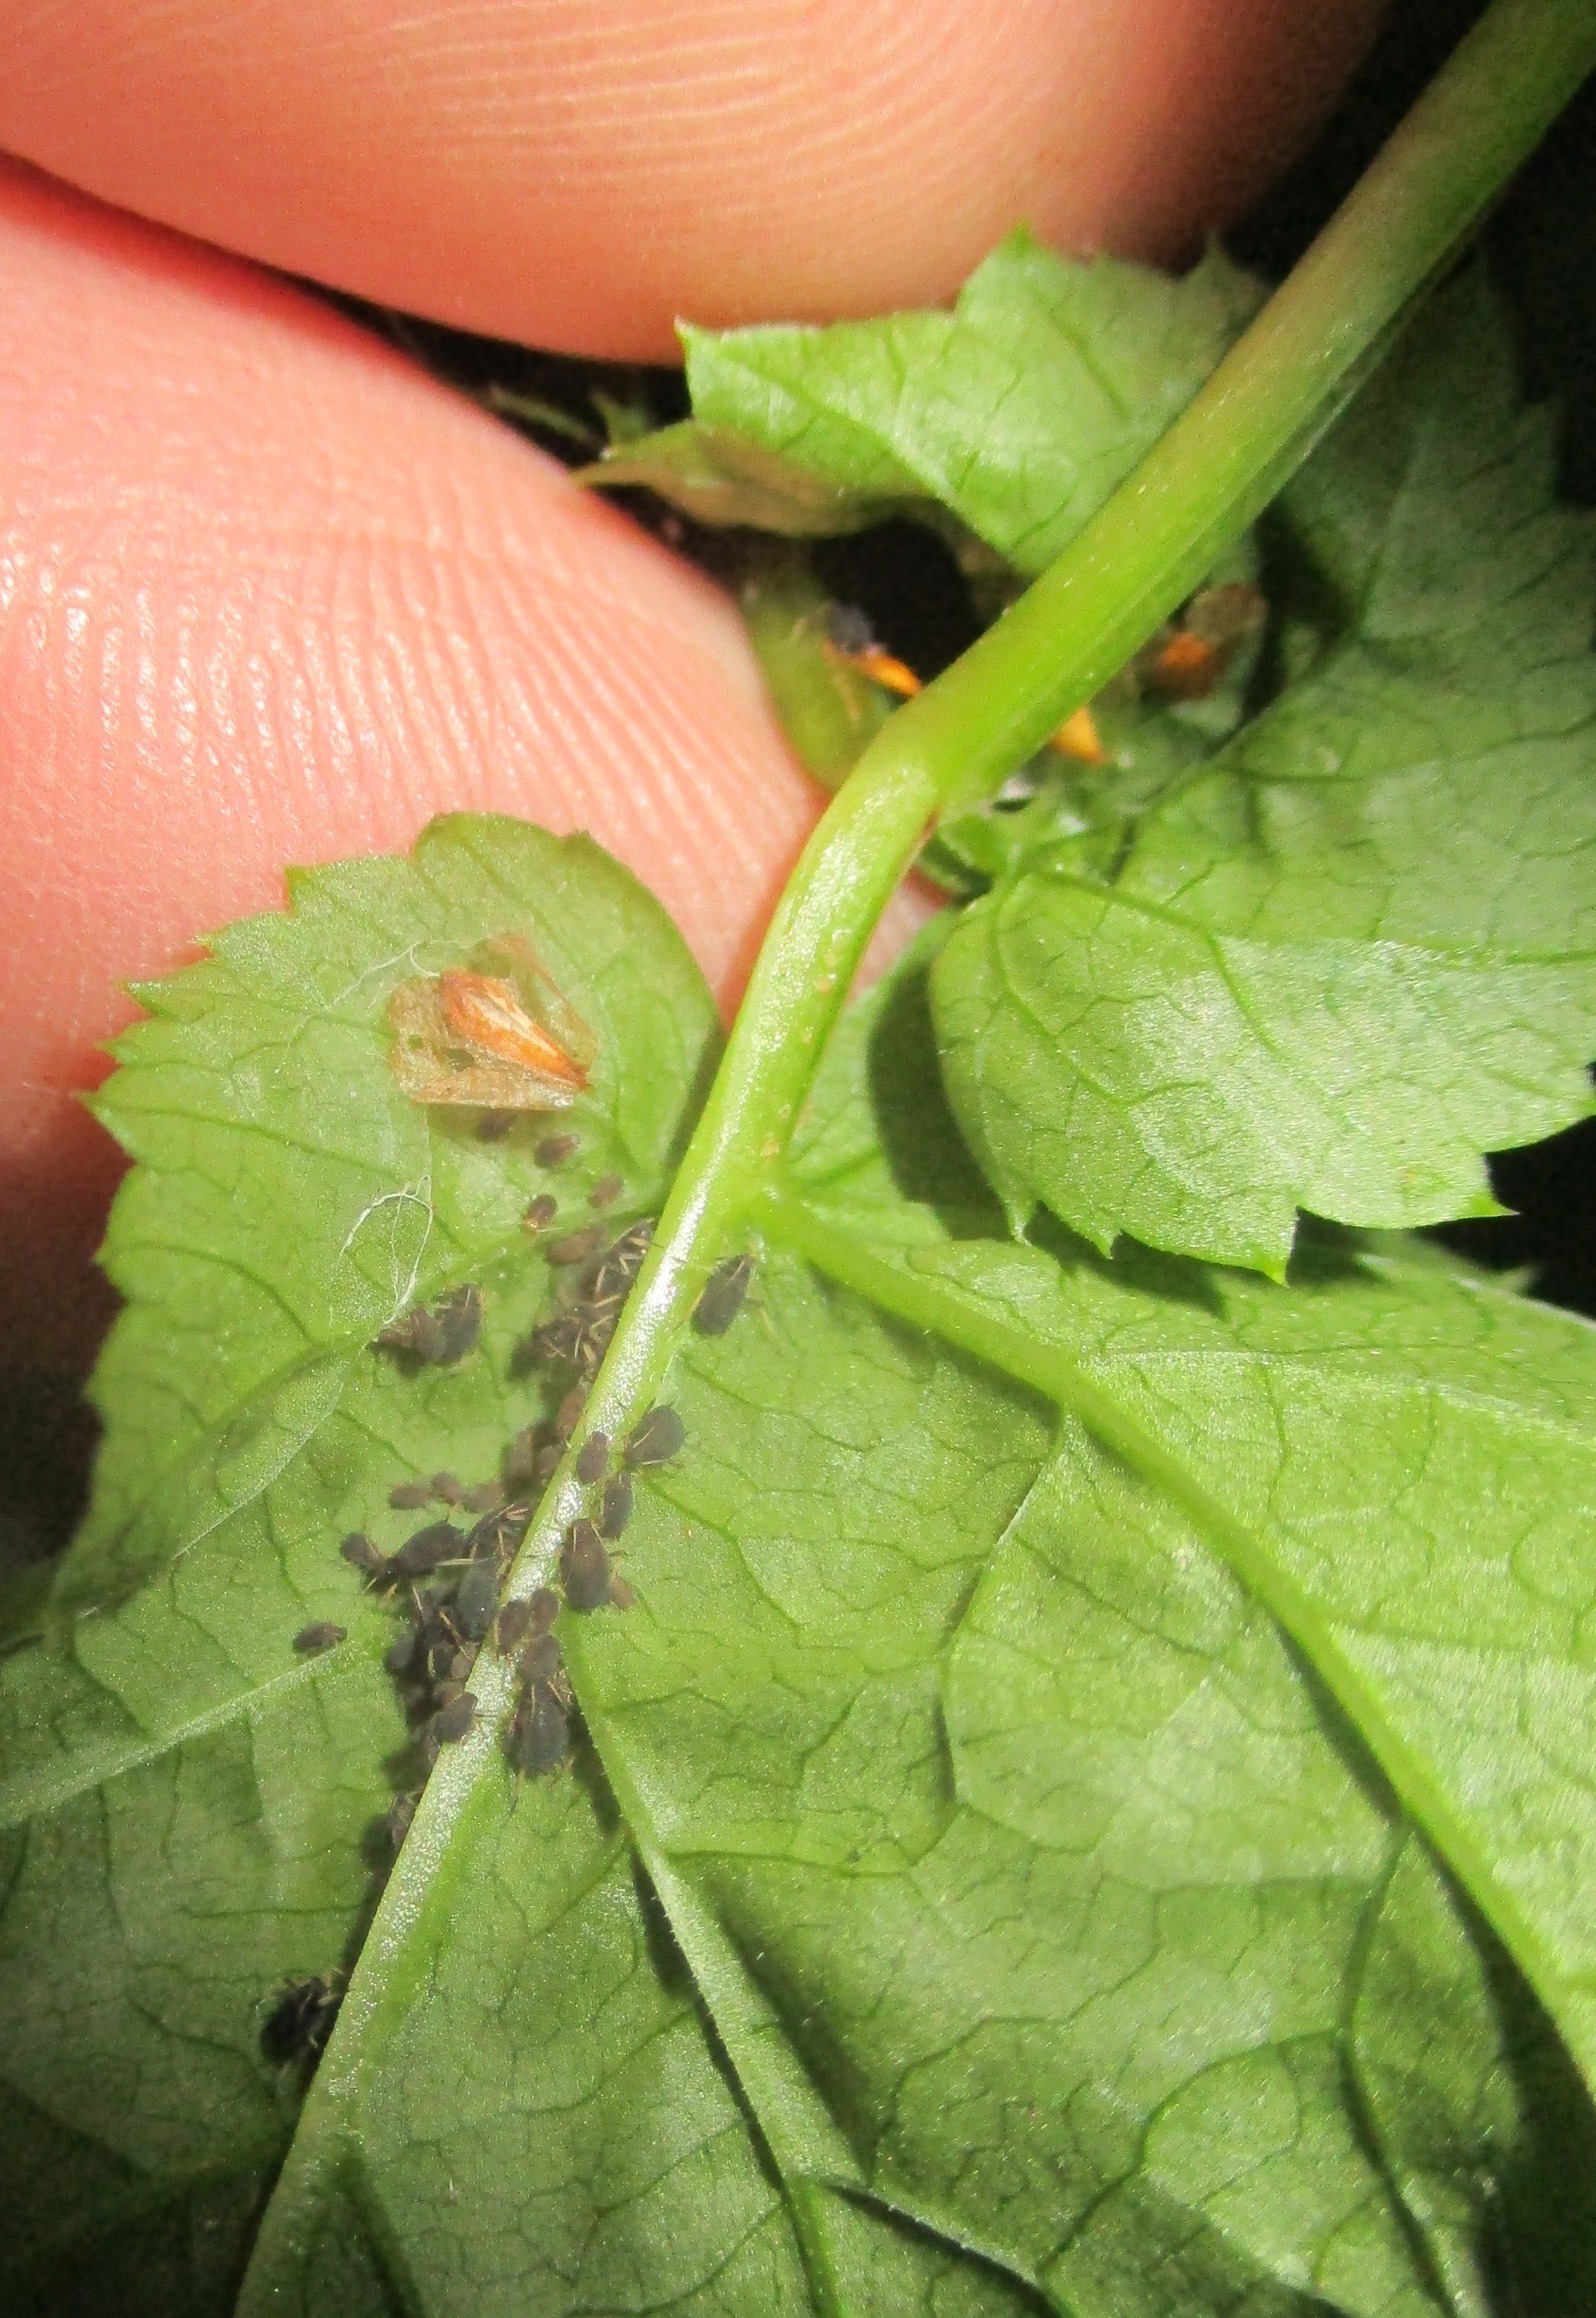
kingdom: Animalia
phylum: Arthropoda
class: Insecta
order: Hemiptera
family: Aphididae
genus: Aphis
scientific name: Aphis podagrariae
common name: Sort skvalderkålbladlus
